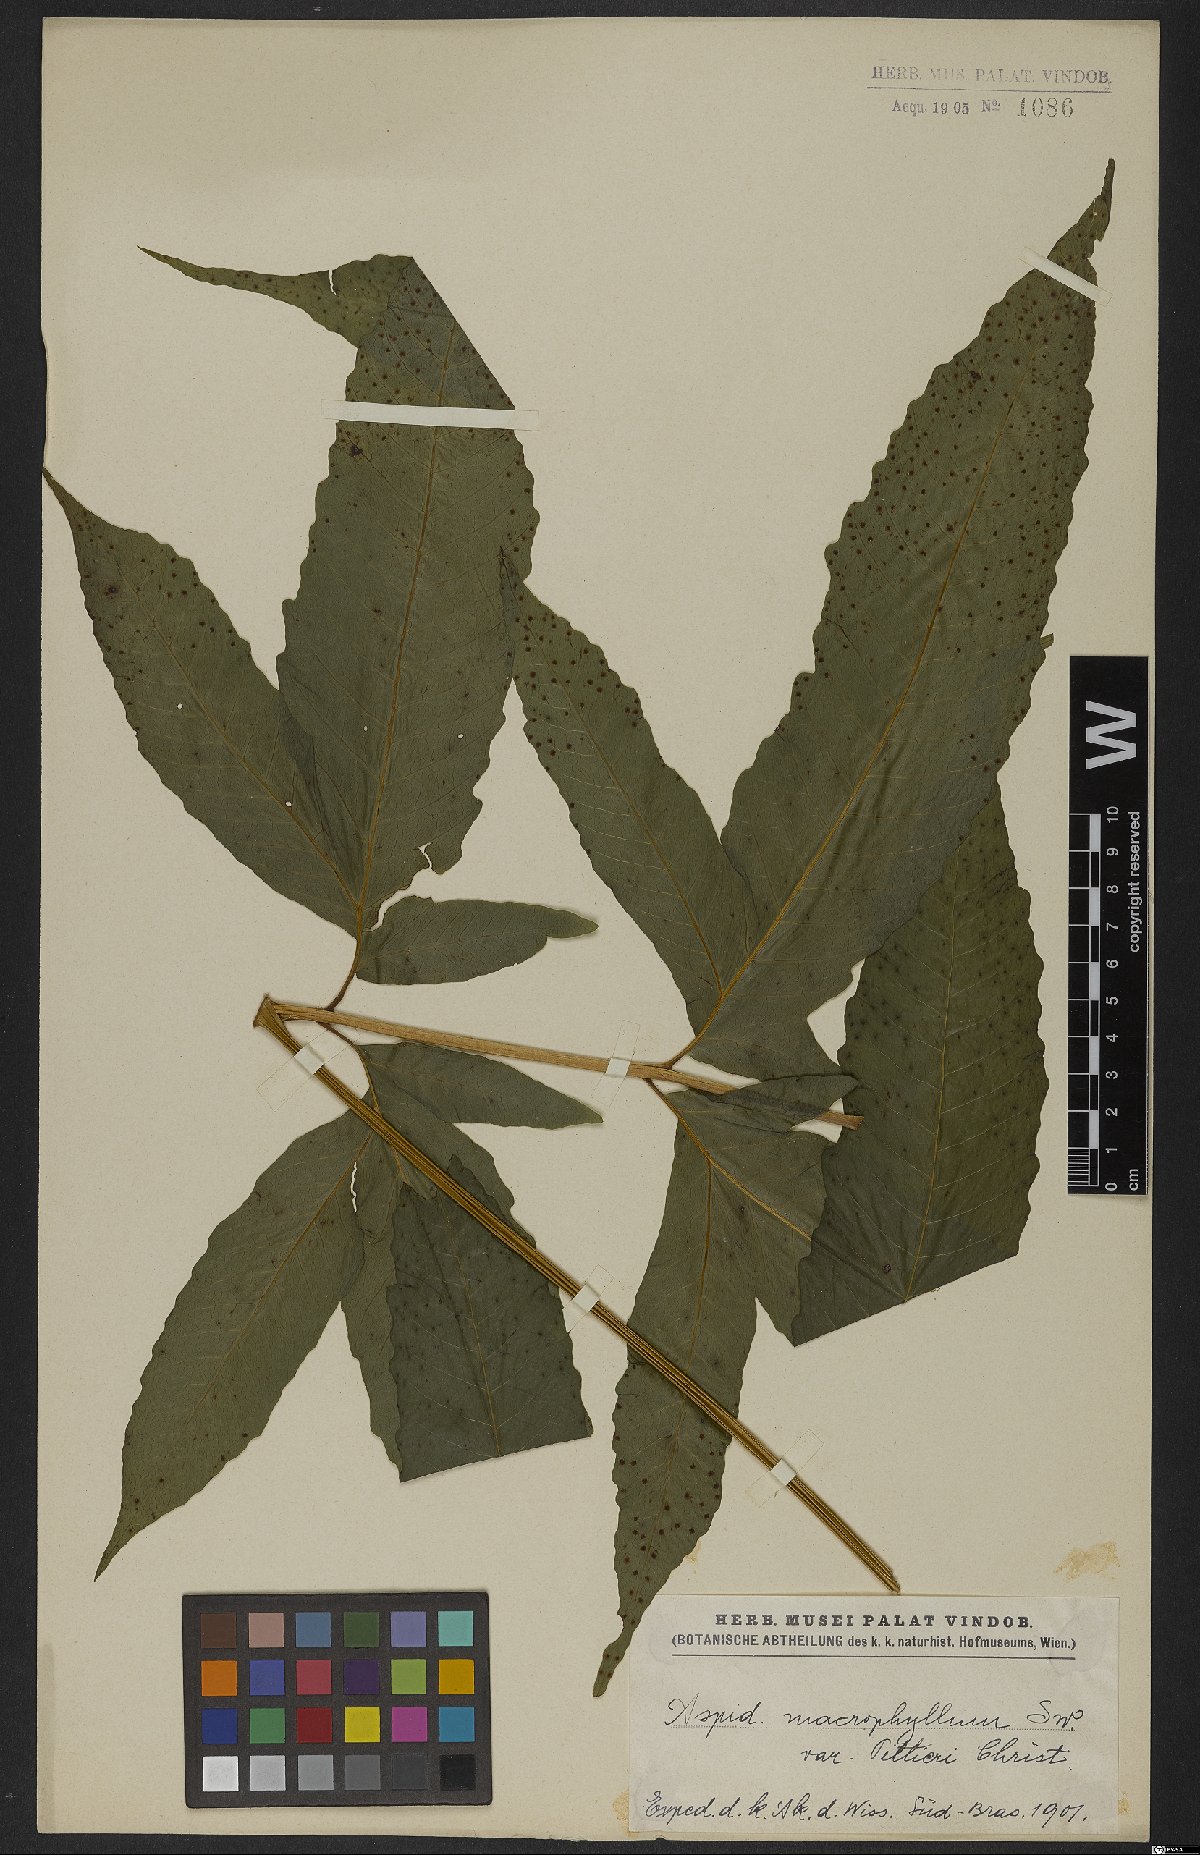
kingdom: Plantae
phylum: Tracheophyta
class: Polypodiopsida
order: Polypodiales
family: Tectariaceae
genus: Tectaria
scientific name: Tectaria incisa
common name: Incised halberd fern
